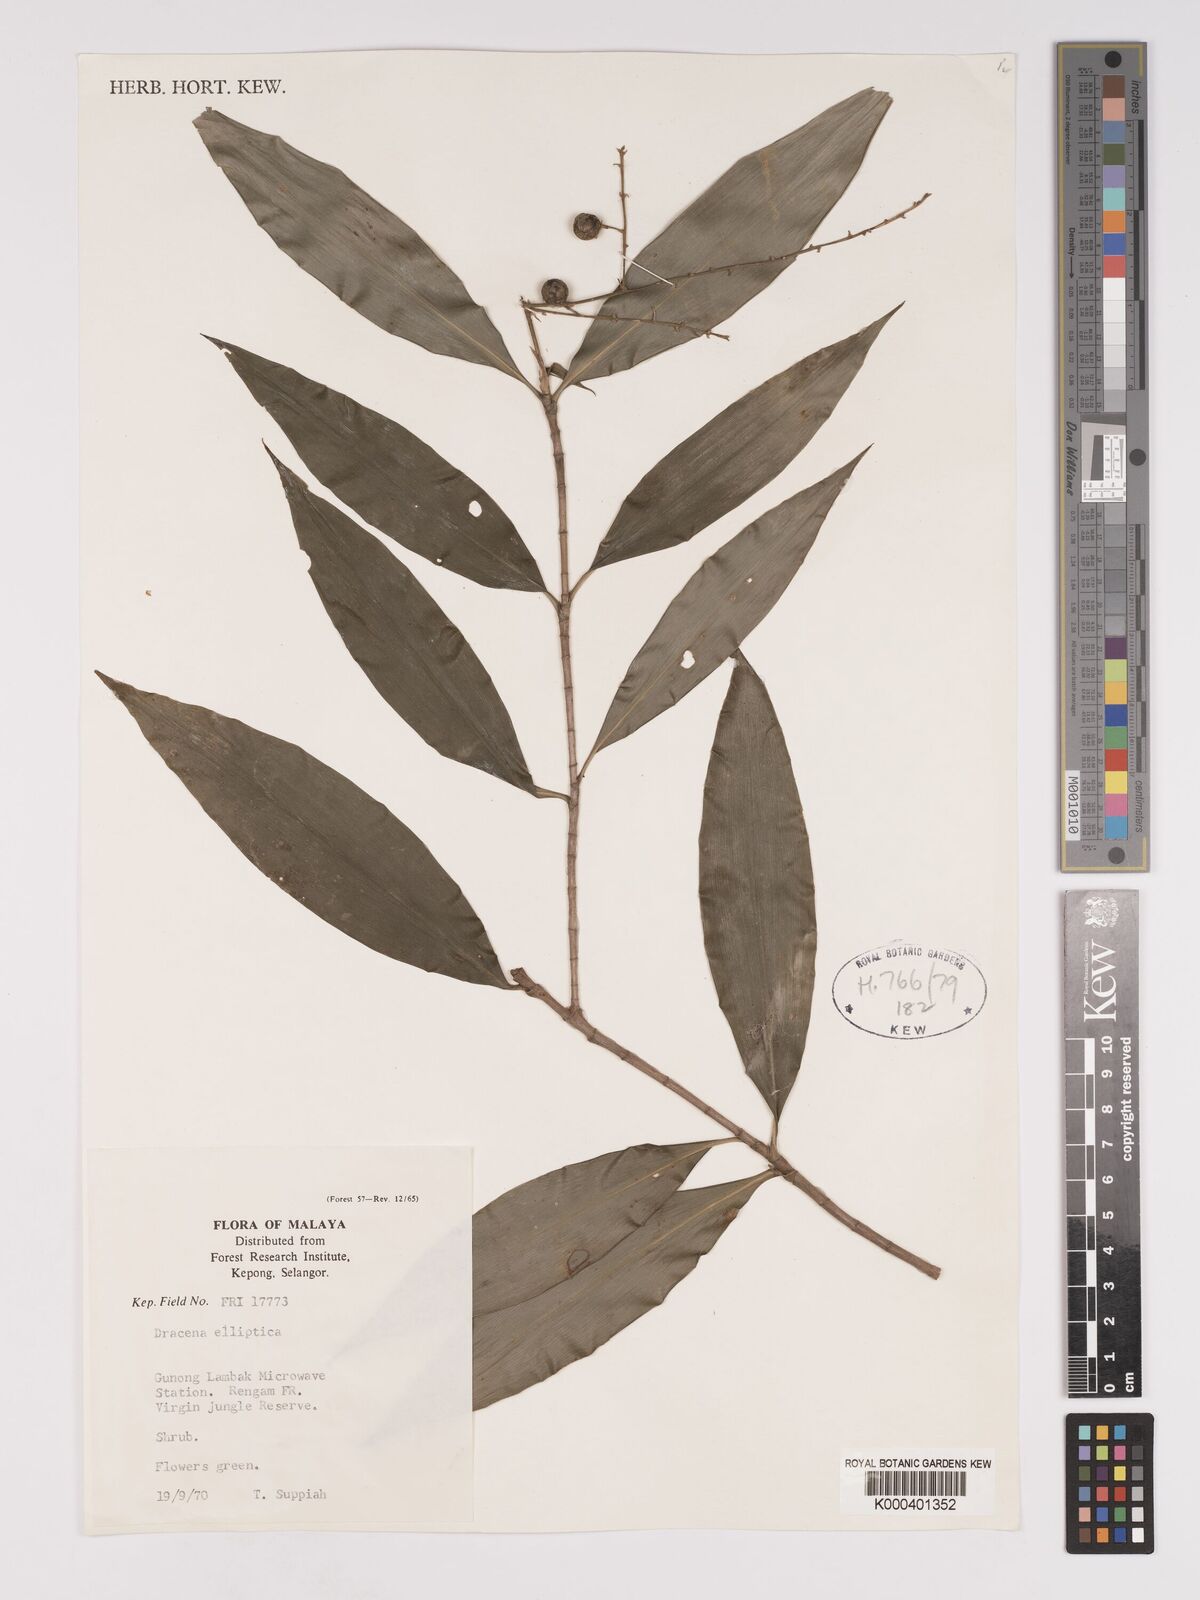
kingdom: Plantae
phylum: Tracheophyta
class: Liliopsida
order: Asparagales
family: Asparagaceae
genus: Dracaena
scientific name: Dracaena elliptica
